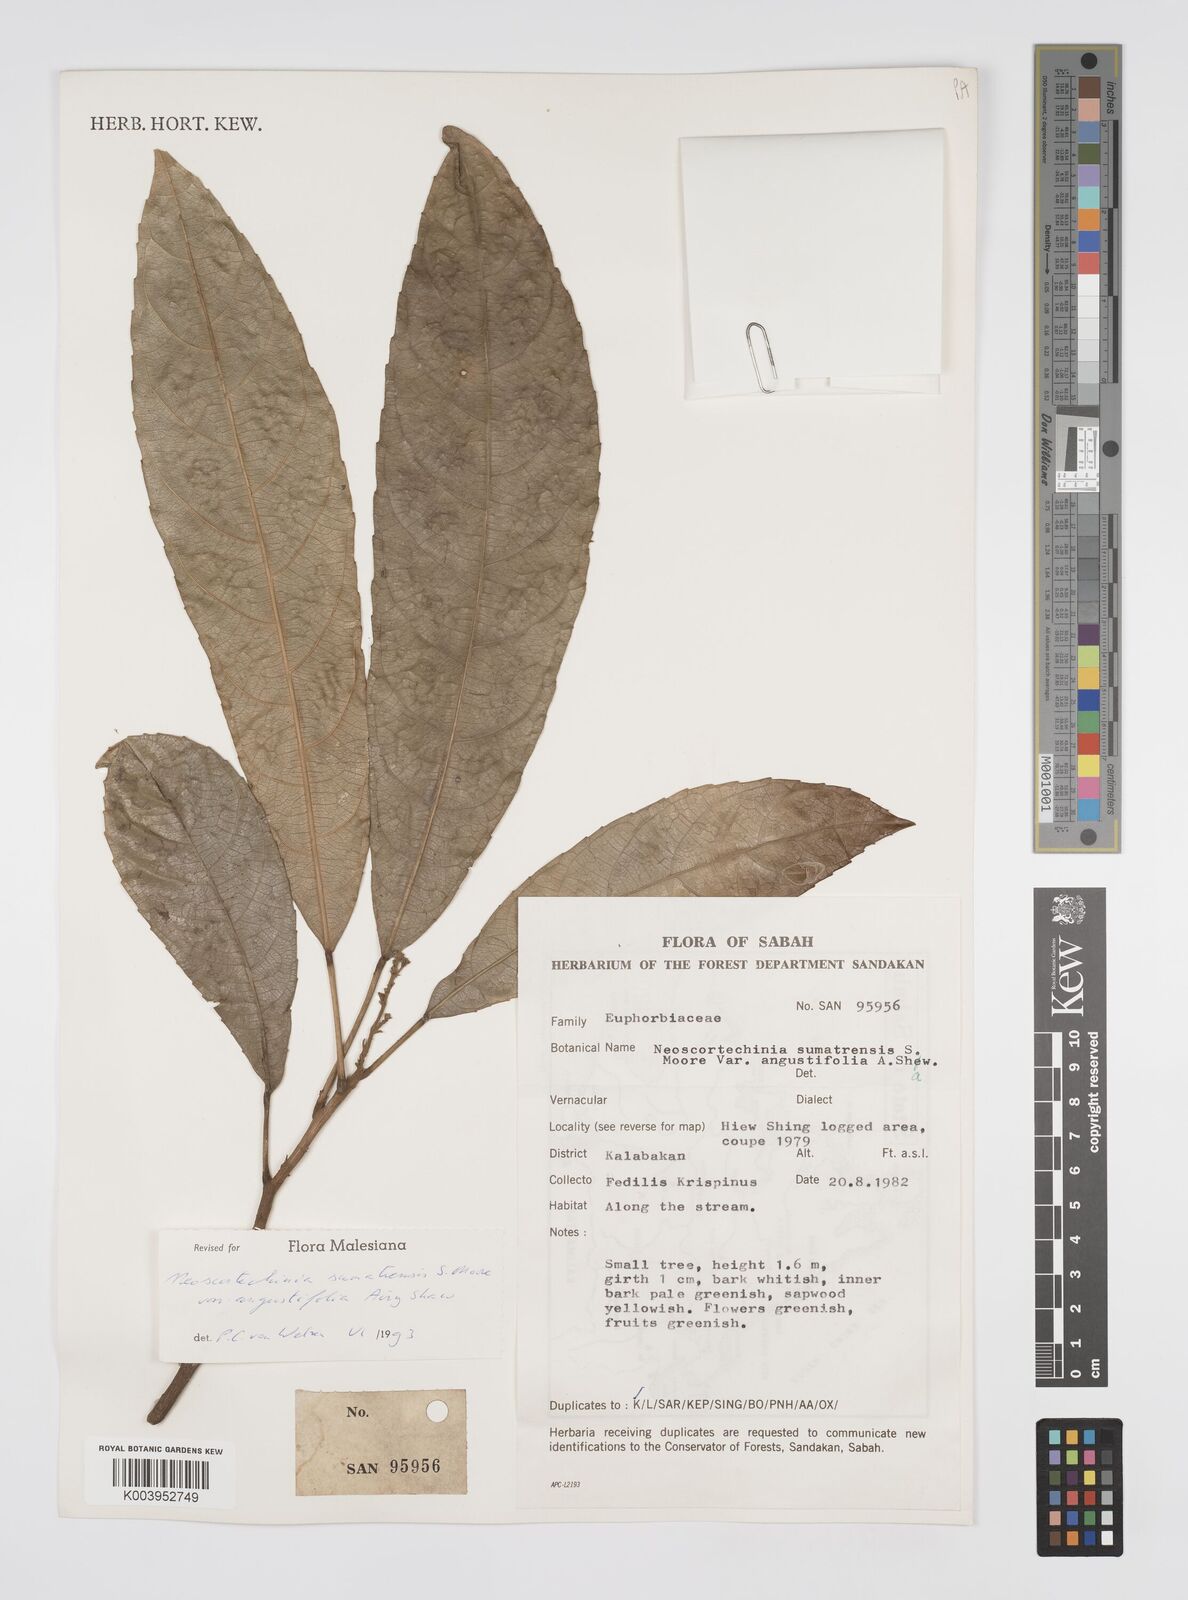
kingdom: Plantae
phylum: Tracheophyta
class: Magnoliopsida
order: Malpighiales
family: Euphorbiaceae
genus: Neoscortechinia
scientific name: Neoscortechinia angustifolia
